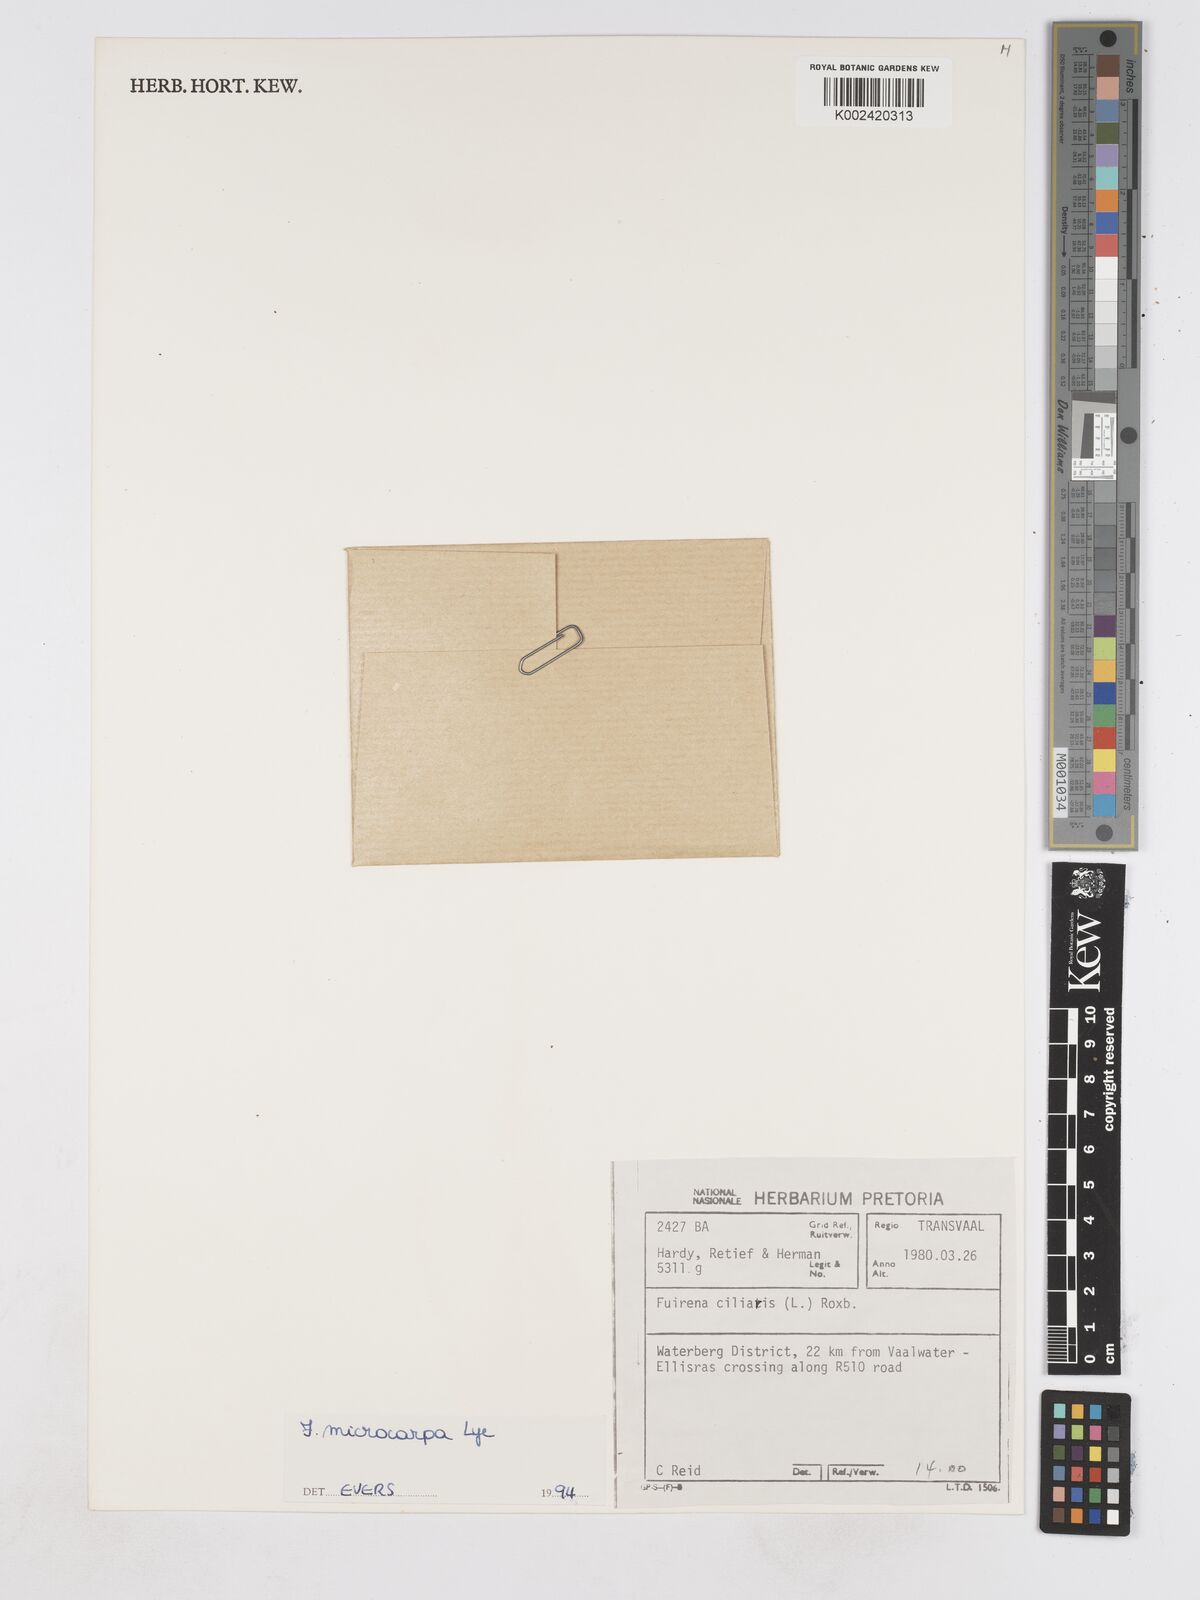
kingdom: Plantae
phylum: Tracheophyta
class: Liliopsida
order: Poales
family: Cyperaceae
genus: Fuirena
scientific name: Fuirena microcarpa
